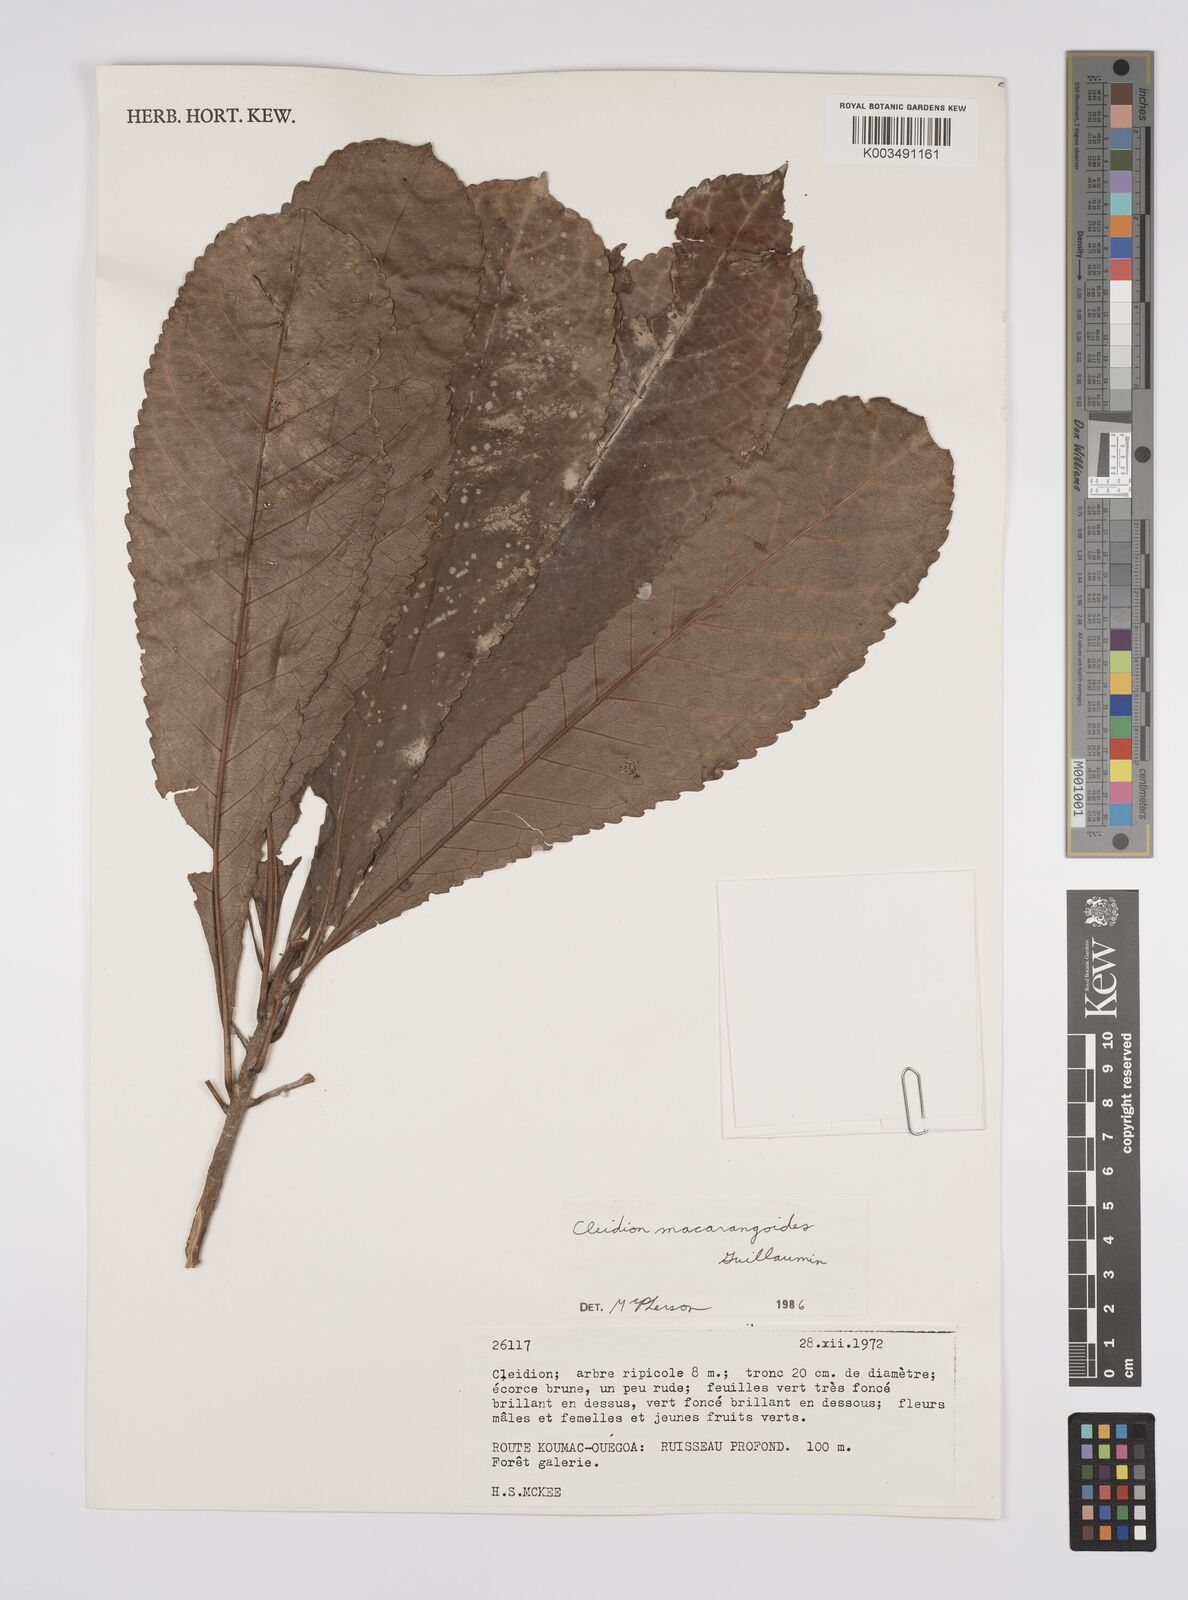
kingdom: Plantae
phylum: Tracheophyta
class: Magnoliopsida
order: Malpighiales
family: Euphorbiaceae
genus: Cleidion
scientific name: Cleidion macarangoides
